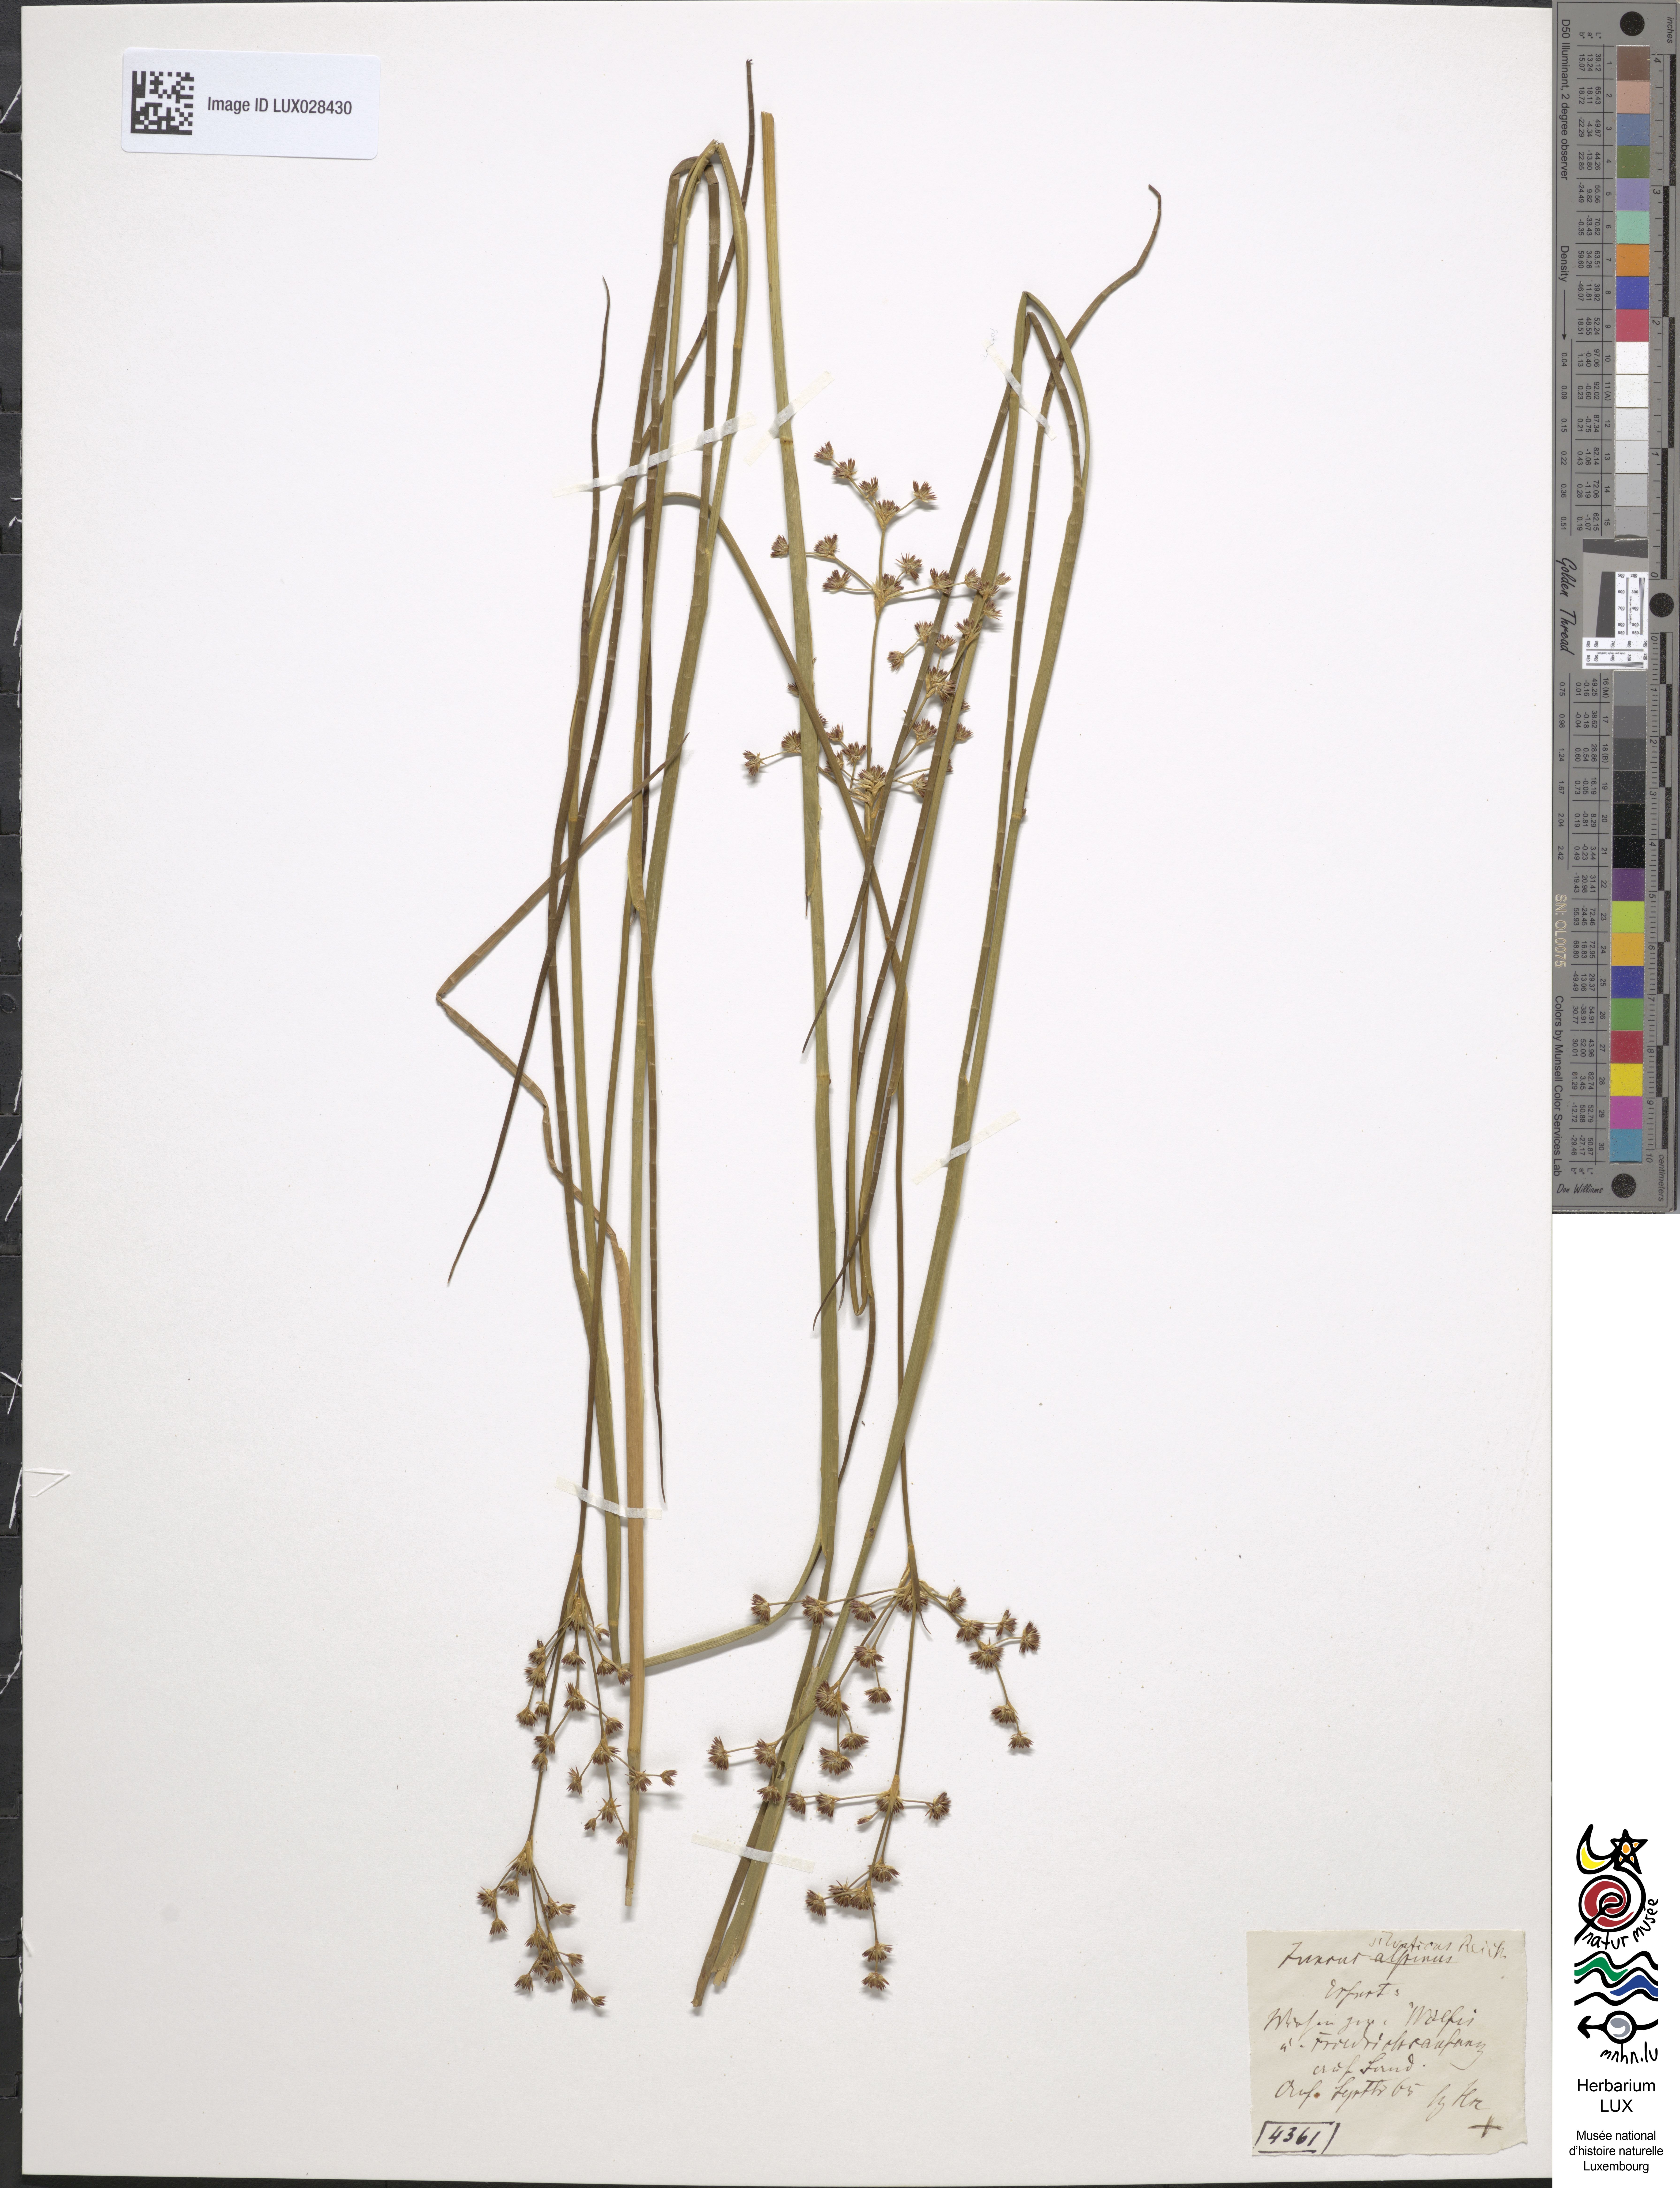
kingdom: Plantae
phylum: Tracheophyta
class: Liliopsida
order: Poales
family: Juncaceae
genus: Juncus
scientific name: Juncus acutiflorus
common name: Sharp-flowered rush
